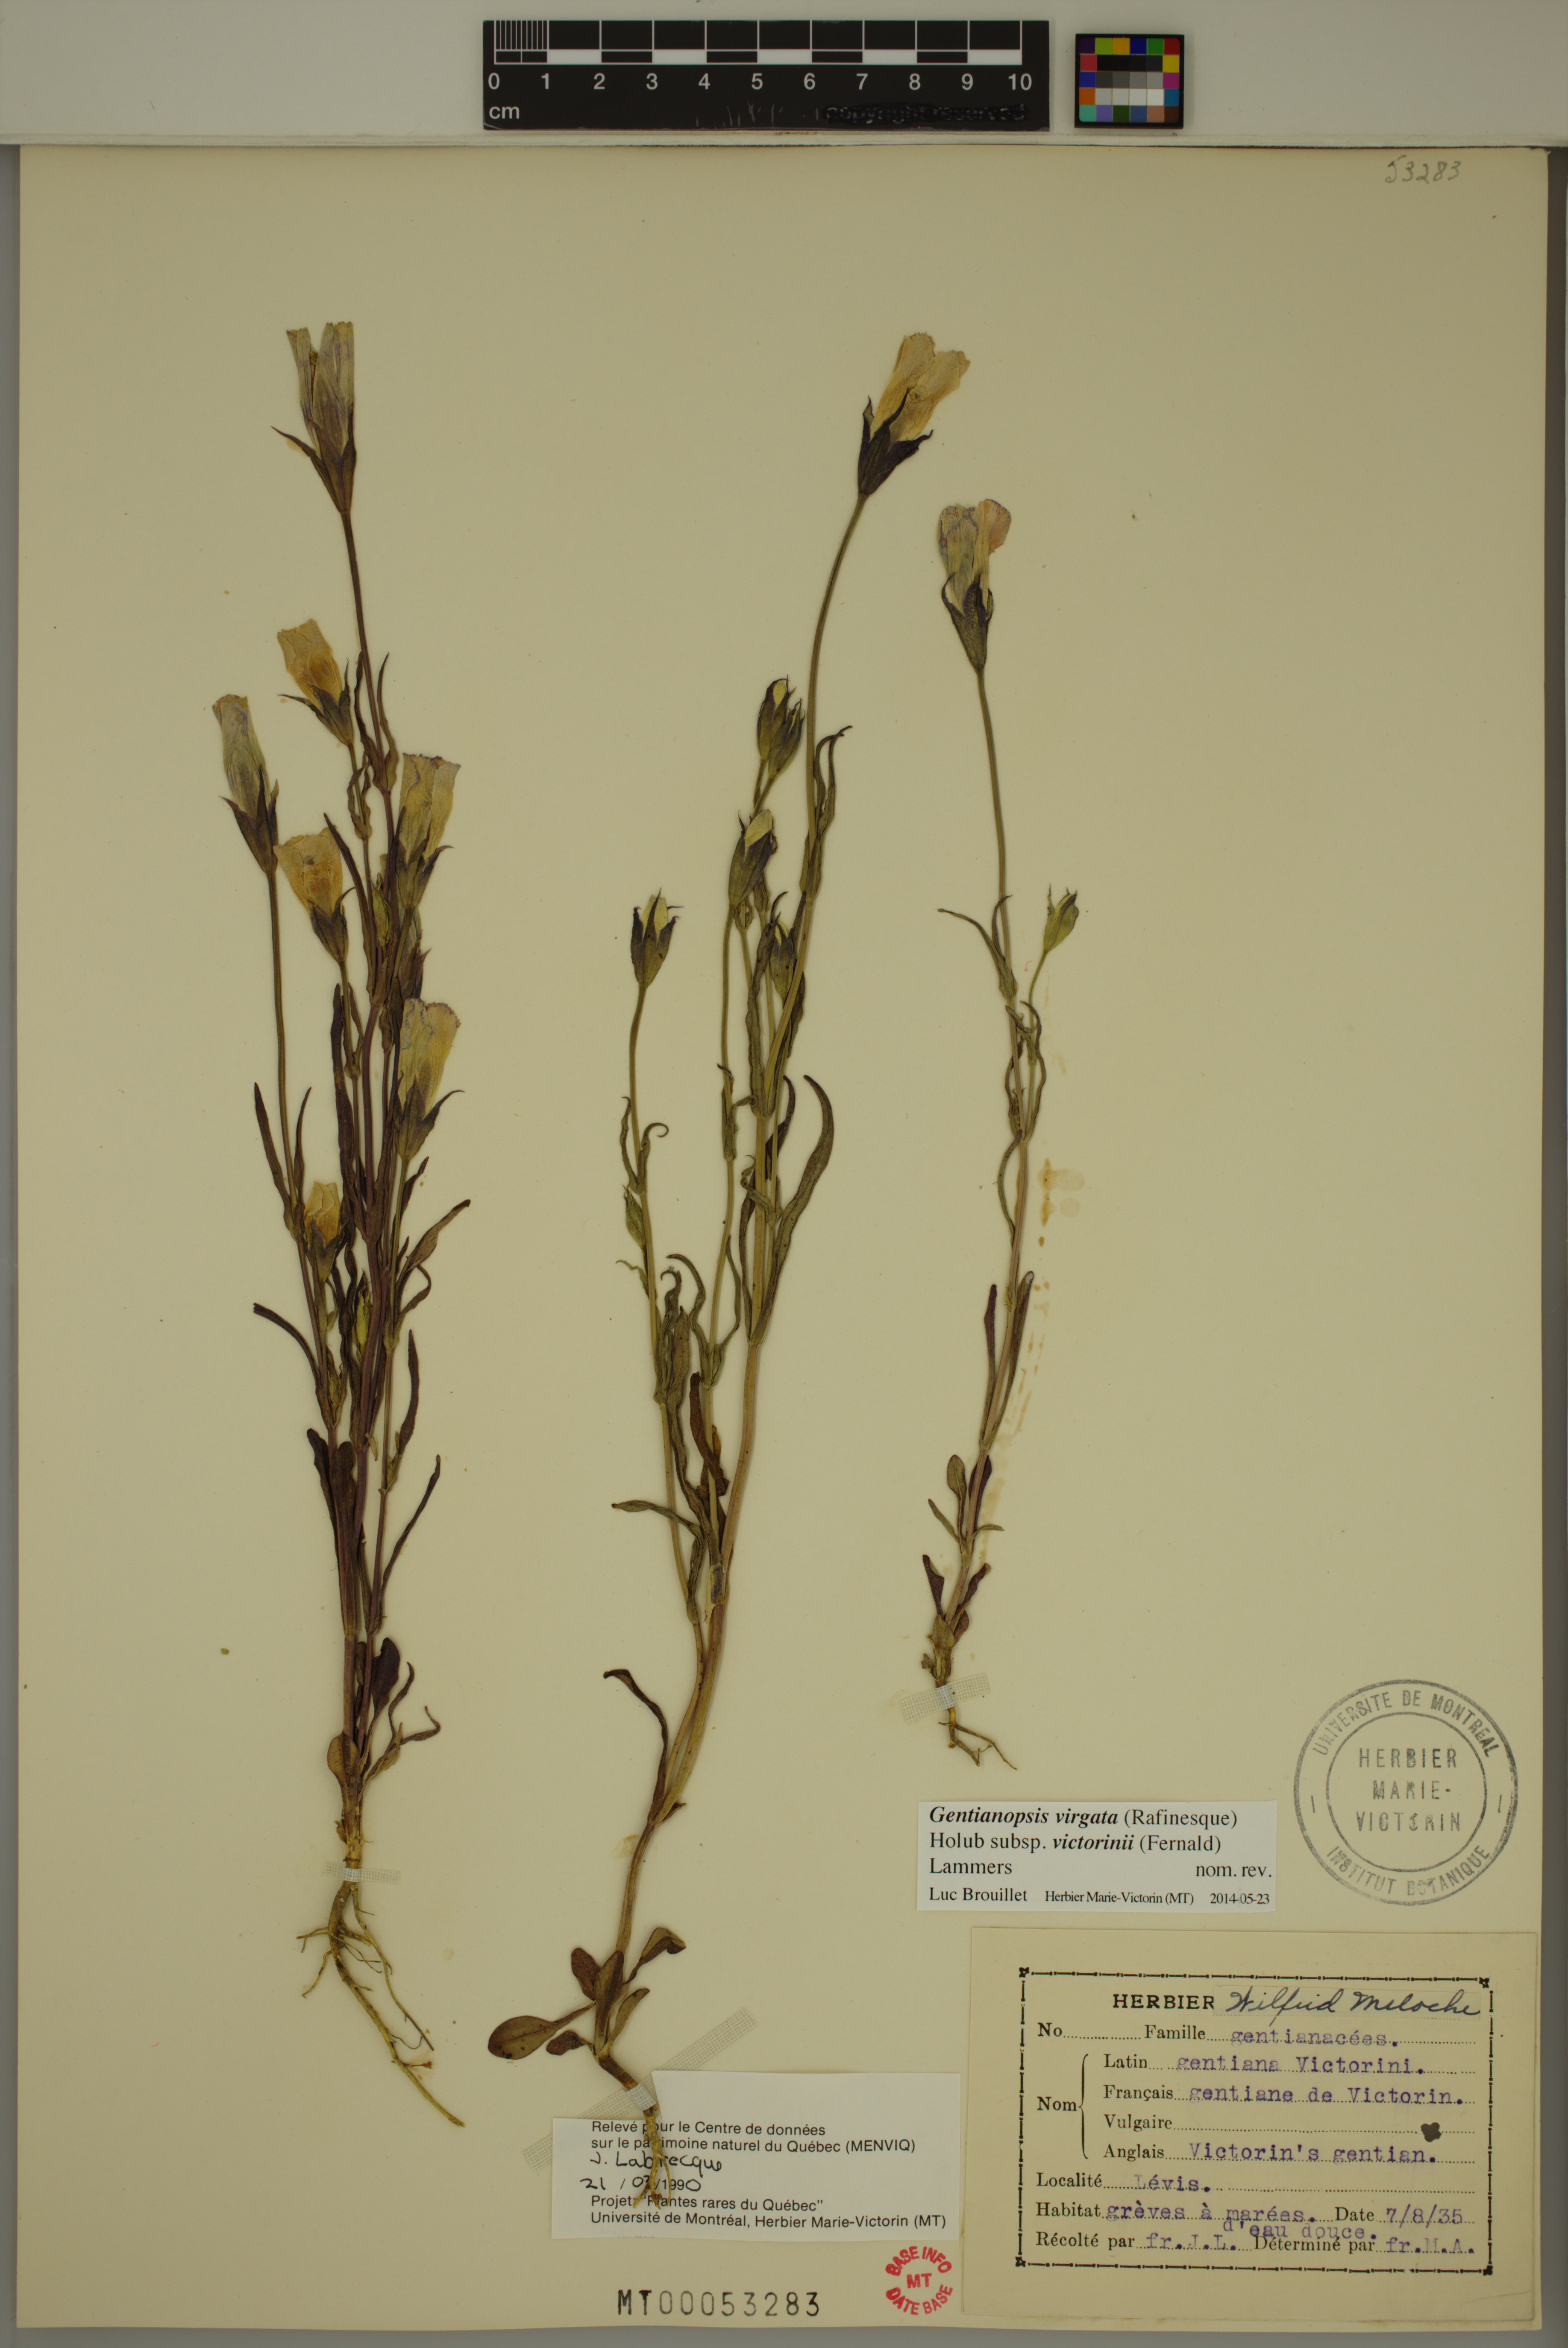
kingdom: Plantae
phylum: Tracheophyta
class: Magnoliopsida
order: Gentianales
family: Gentianaceae
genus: Gentianopsis
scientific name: Gentianopsis victorinii
